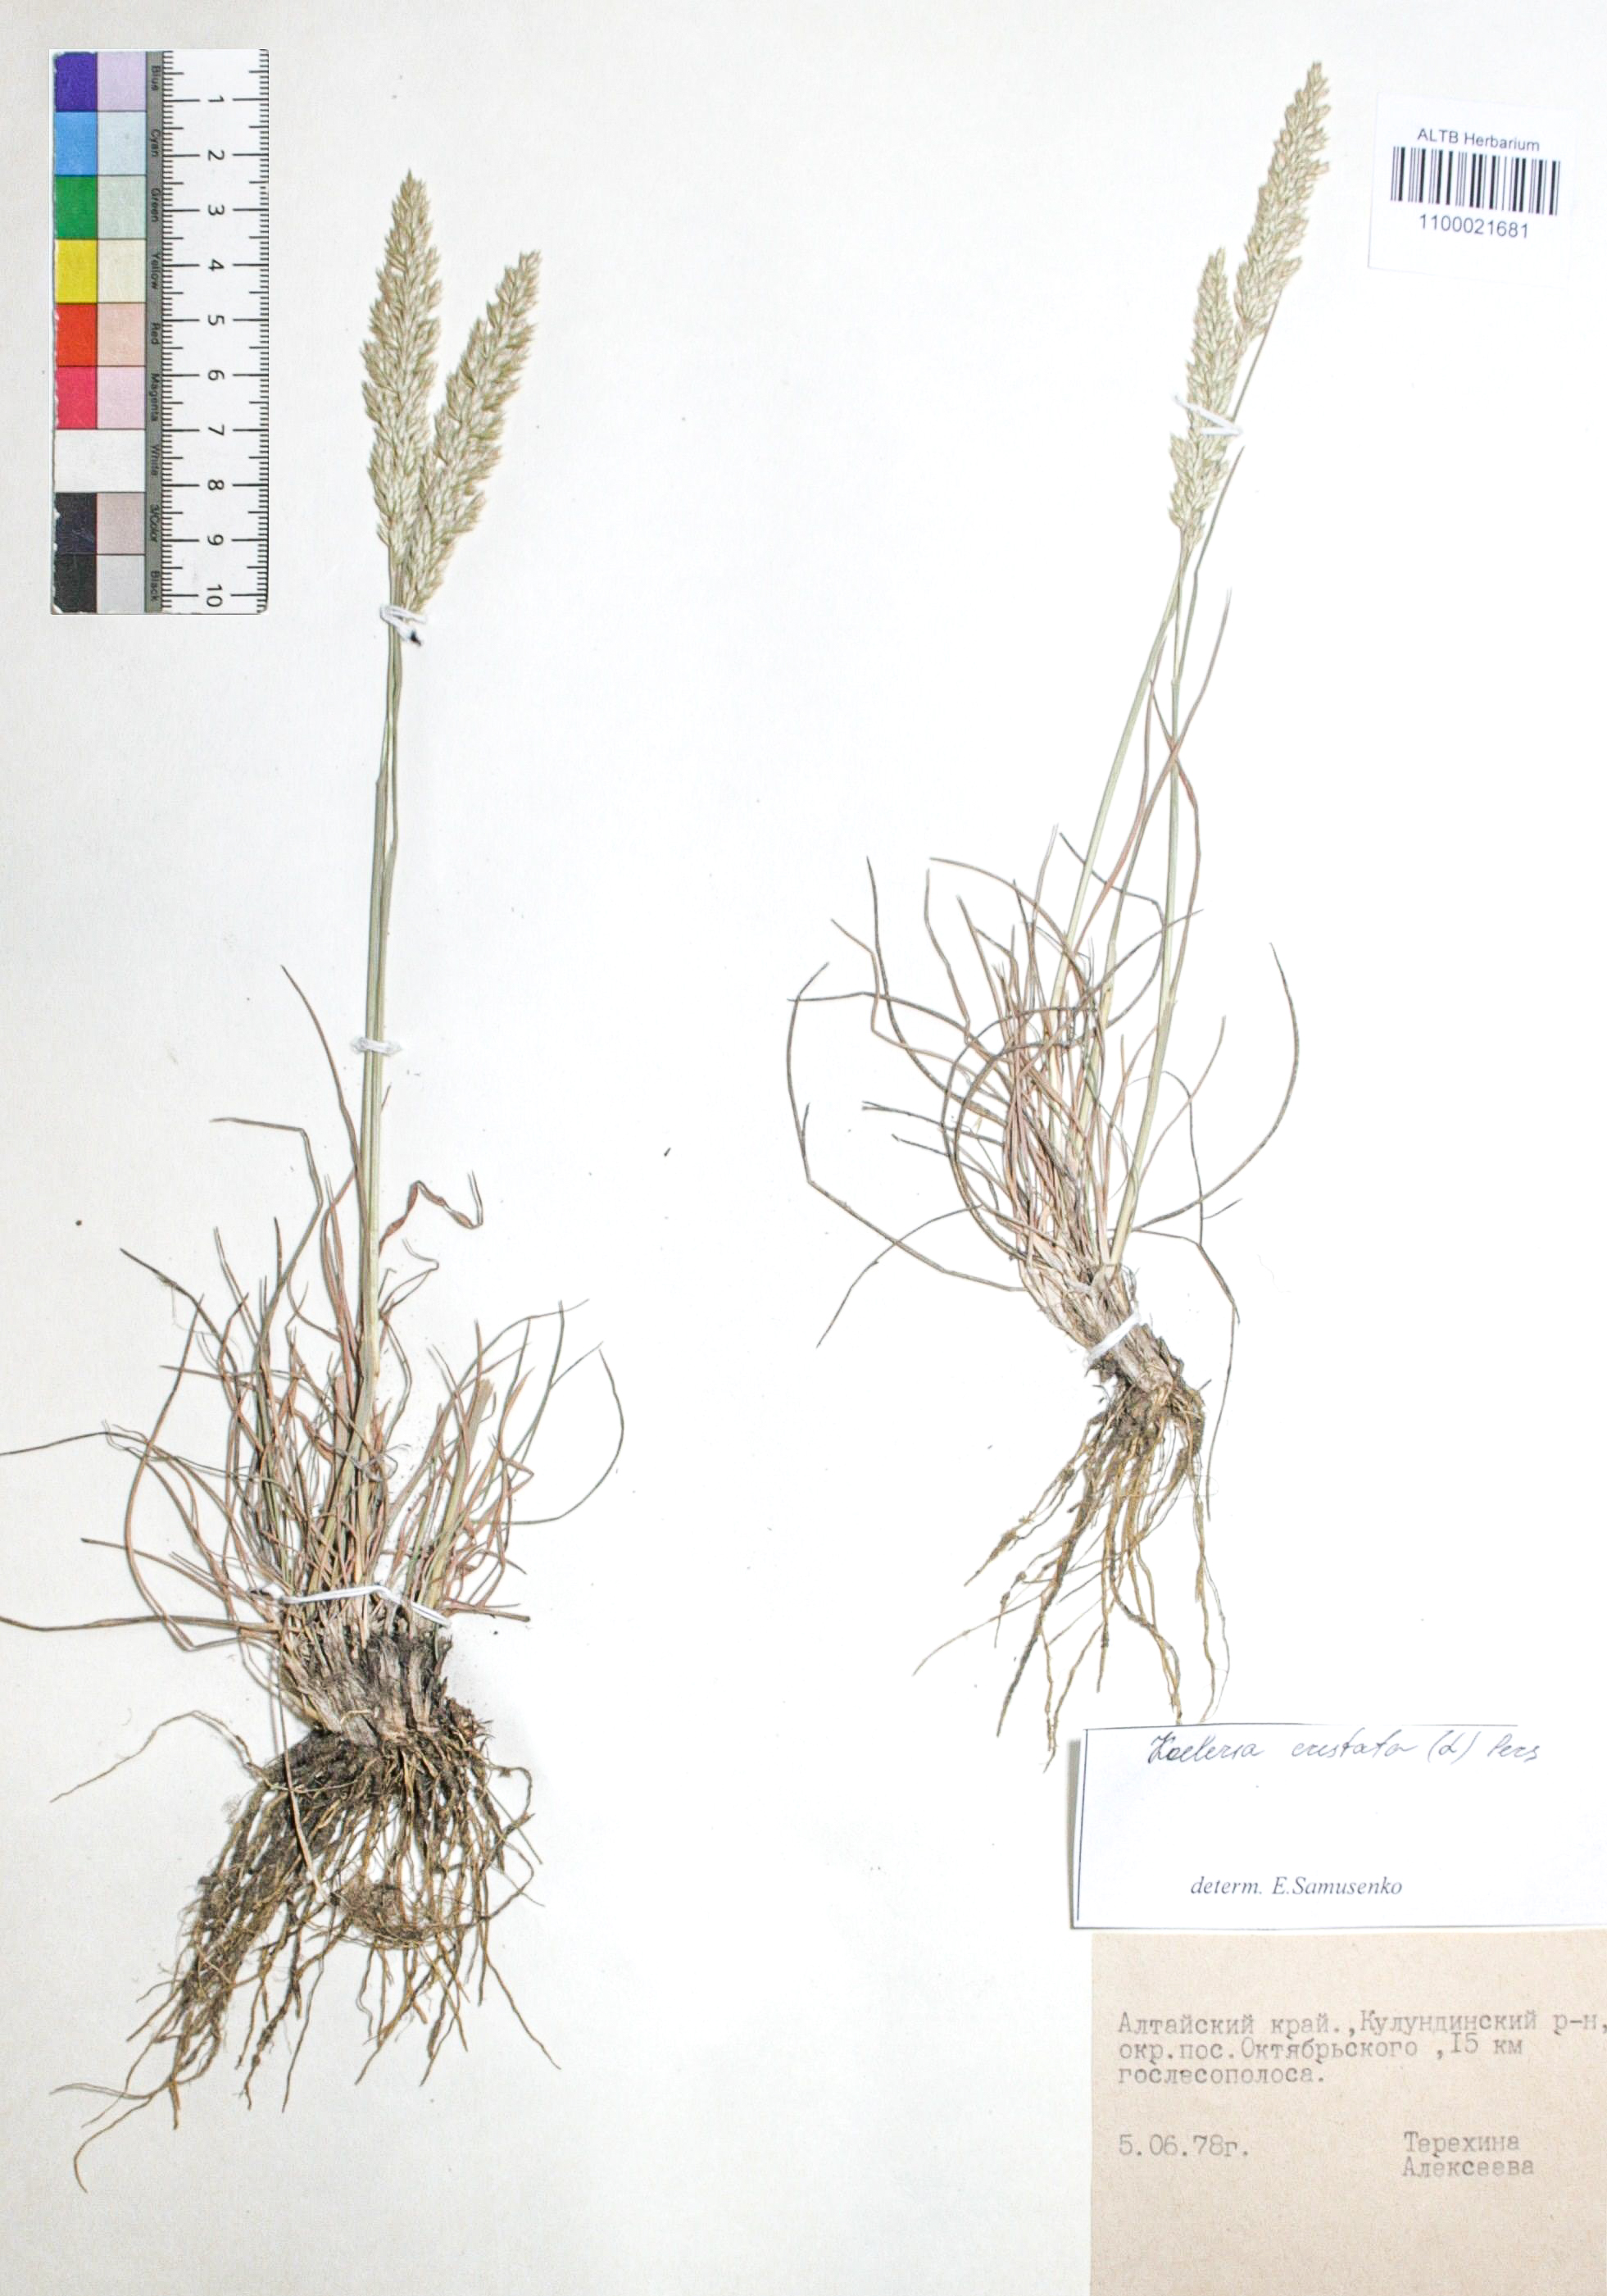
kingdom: Plantae
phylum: Tracheophyta
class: Liliopsida
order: Poales
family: Poaceae
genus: Koeleria
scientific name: Koeleria pyramidata
